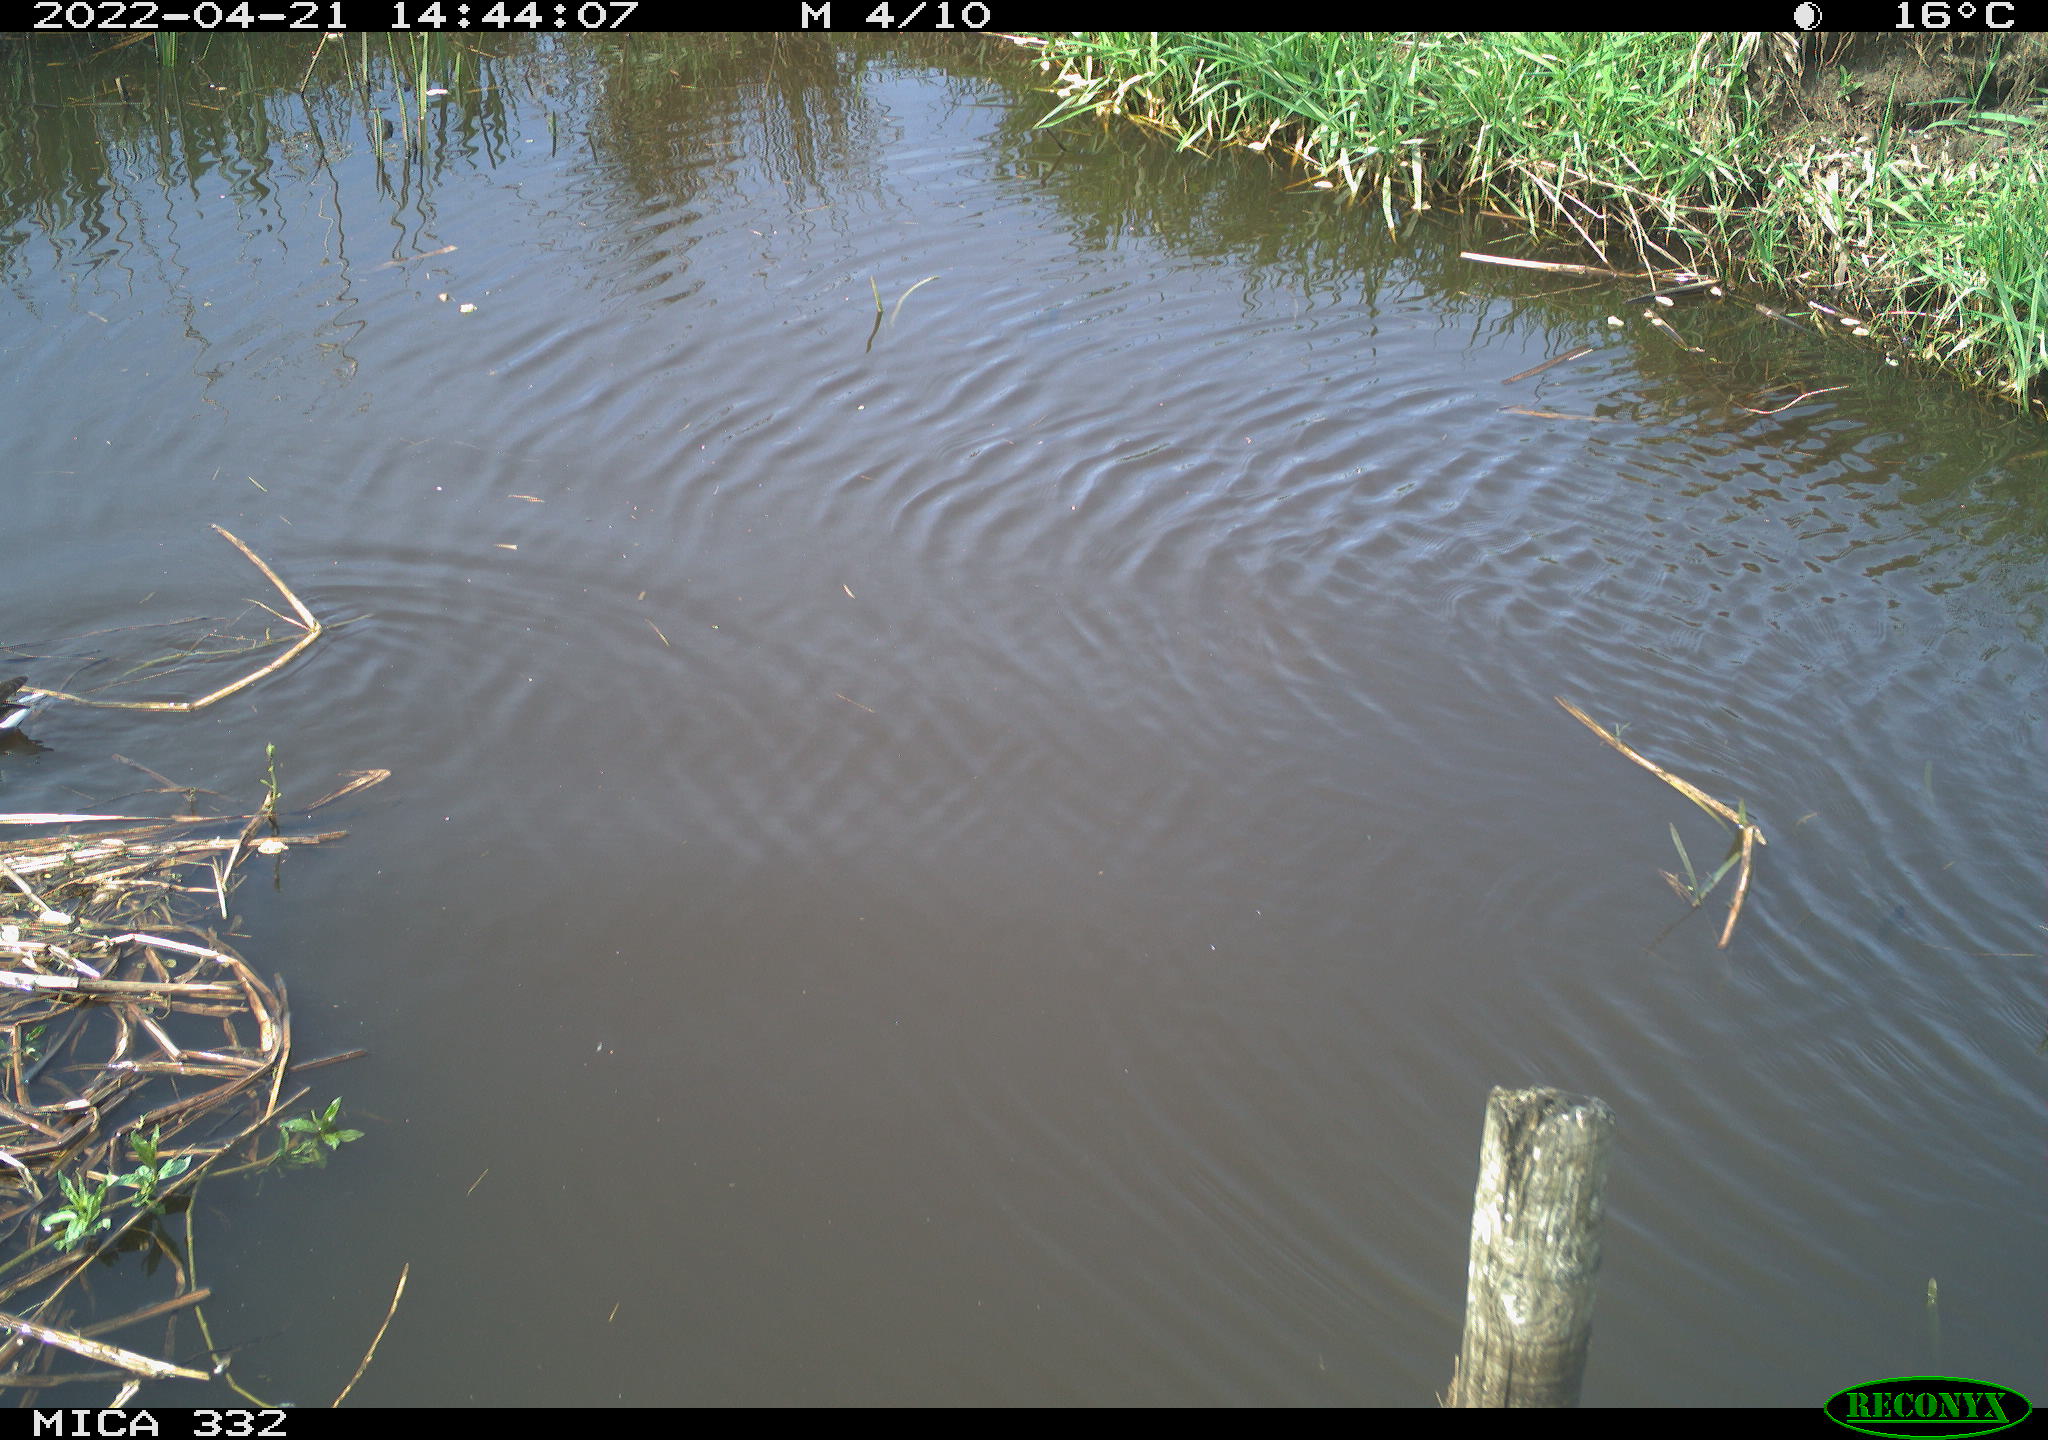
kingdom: Animalia
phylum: Chordata
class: Aves
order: Gruiformes
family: Rallidae
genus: Gallinula
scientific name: Gallinula chloropus
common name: Common moorhen
